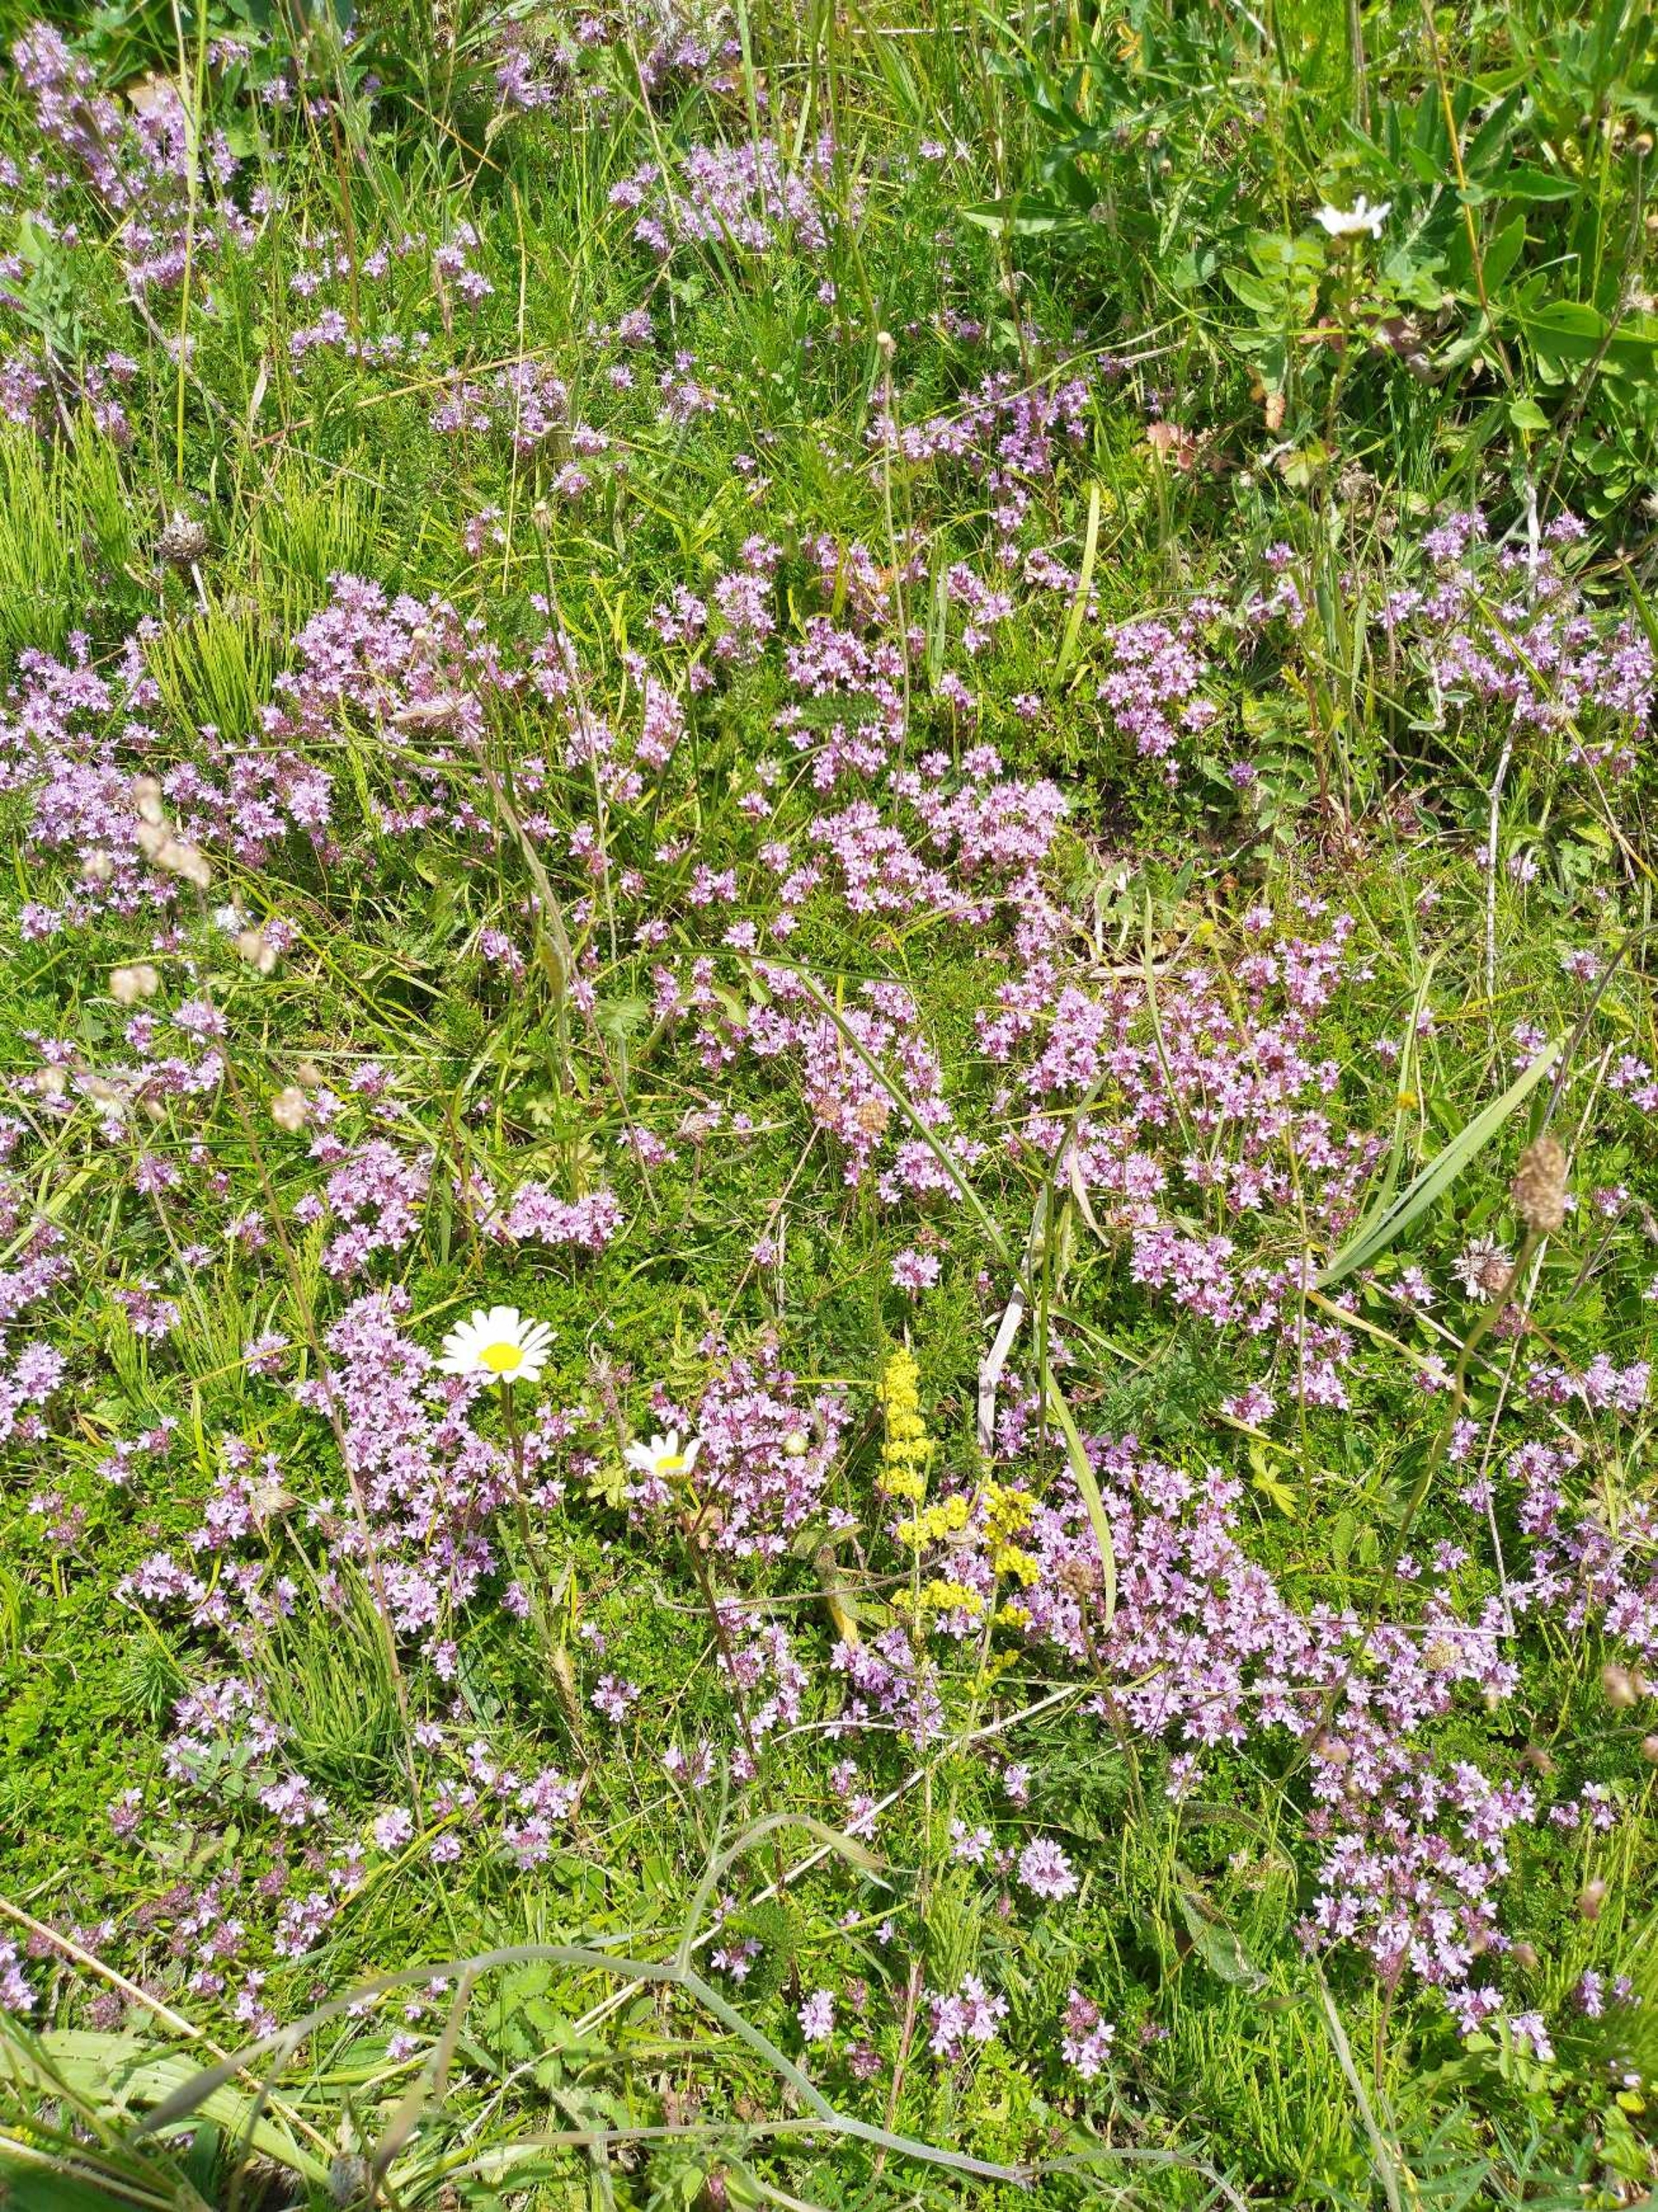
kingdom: Plantae
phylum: Tracheophyta
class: Magnoliopsida
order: Lamiales
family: Lamiaceae
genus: Thymus
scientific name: Thymus serpyllum
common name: Smalbladet timian
